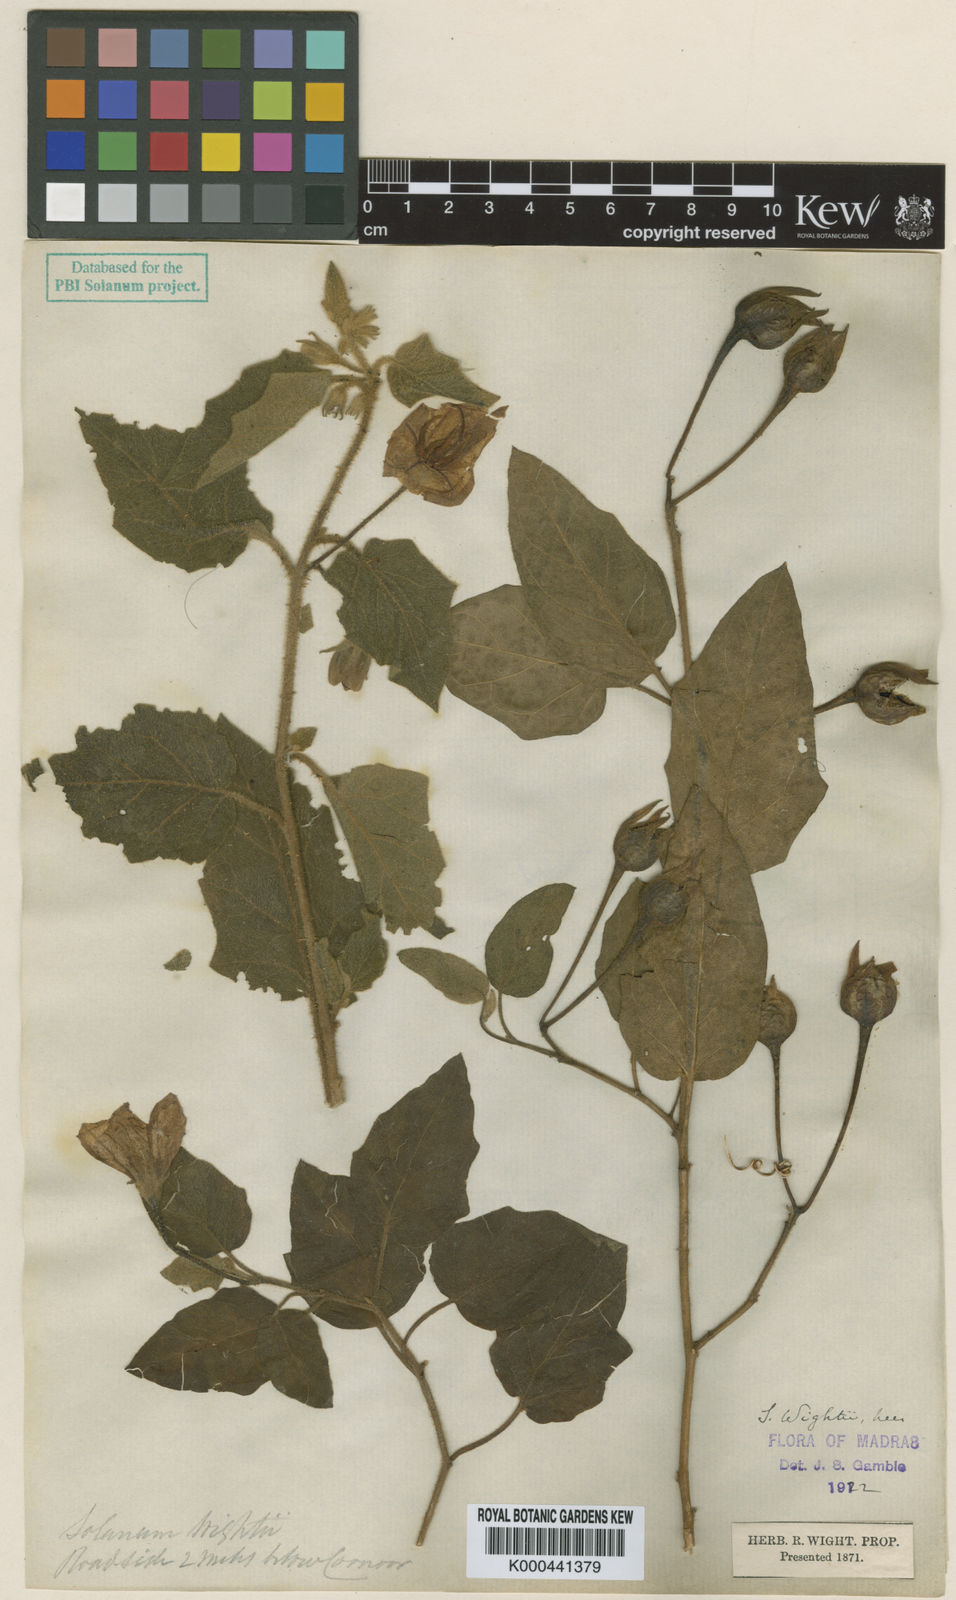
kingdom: Plantae
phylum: Tracheophyta
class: Magnoliopsida
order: Solanales
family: Solanaceae
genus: Solanum
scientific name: Solanum wightii
